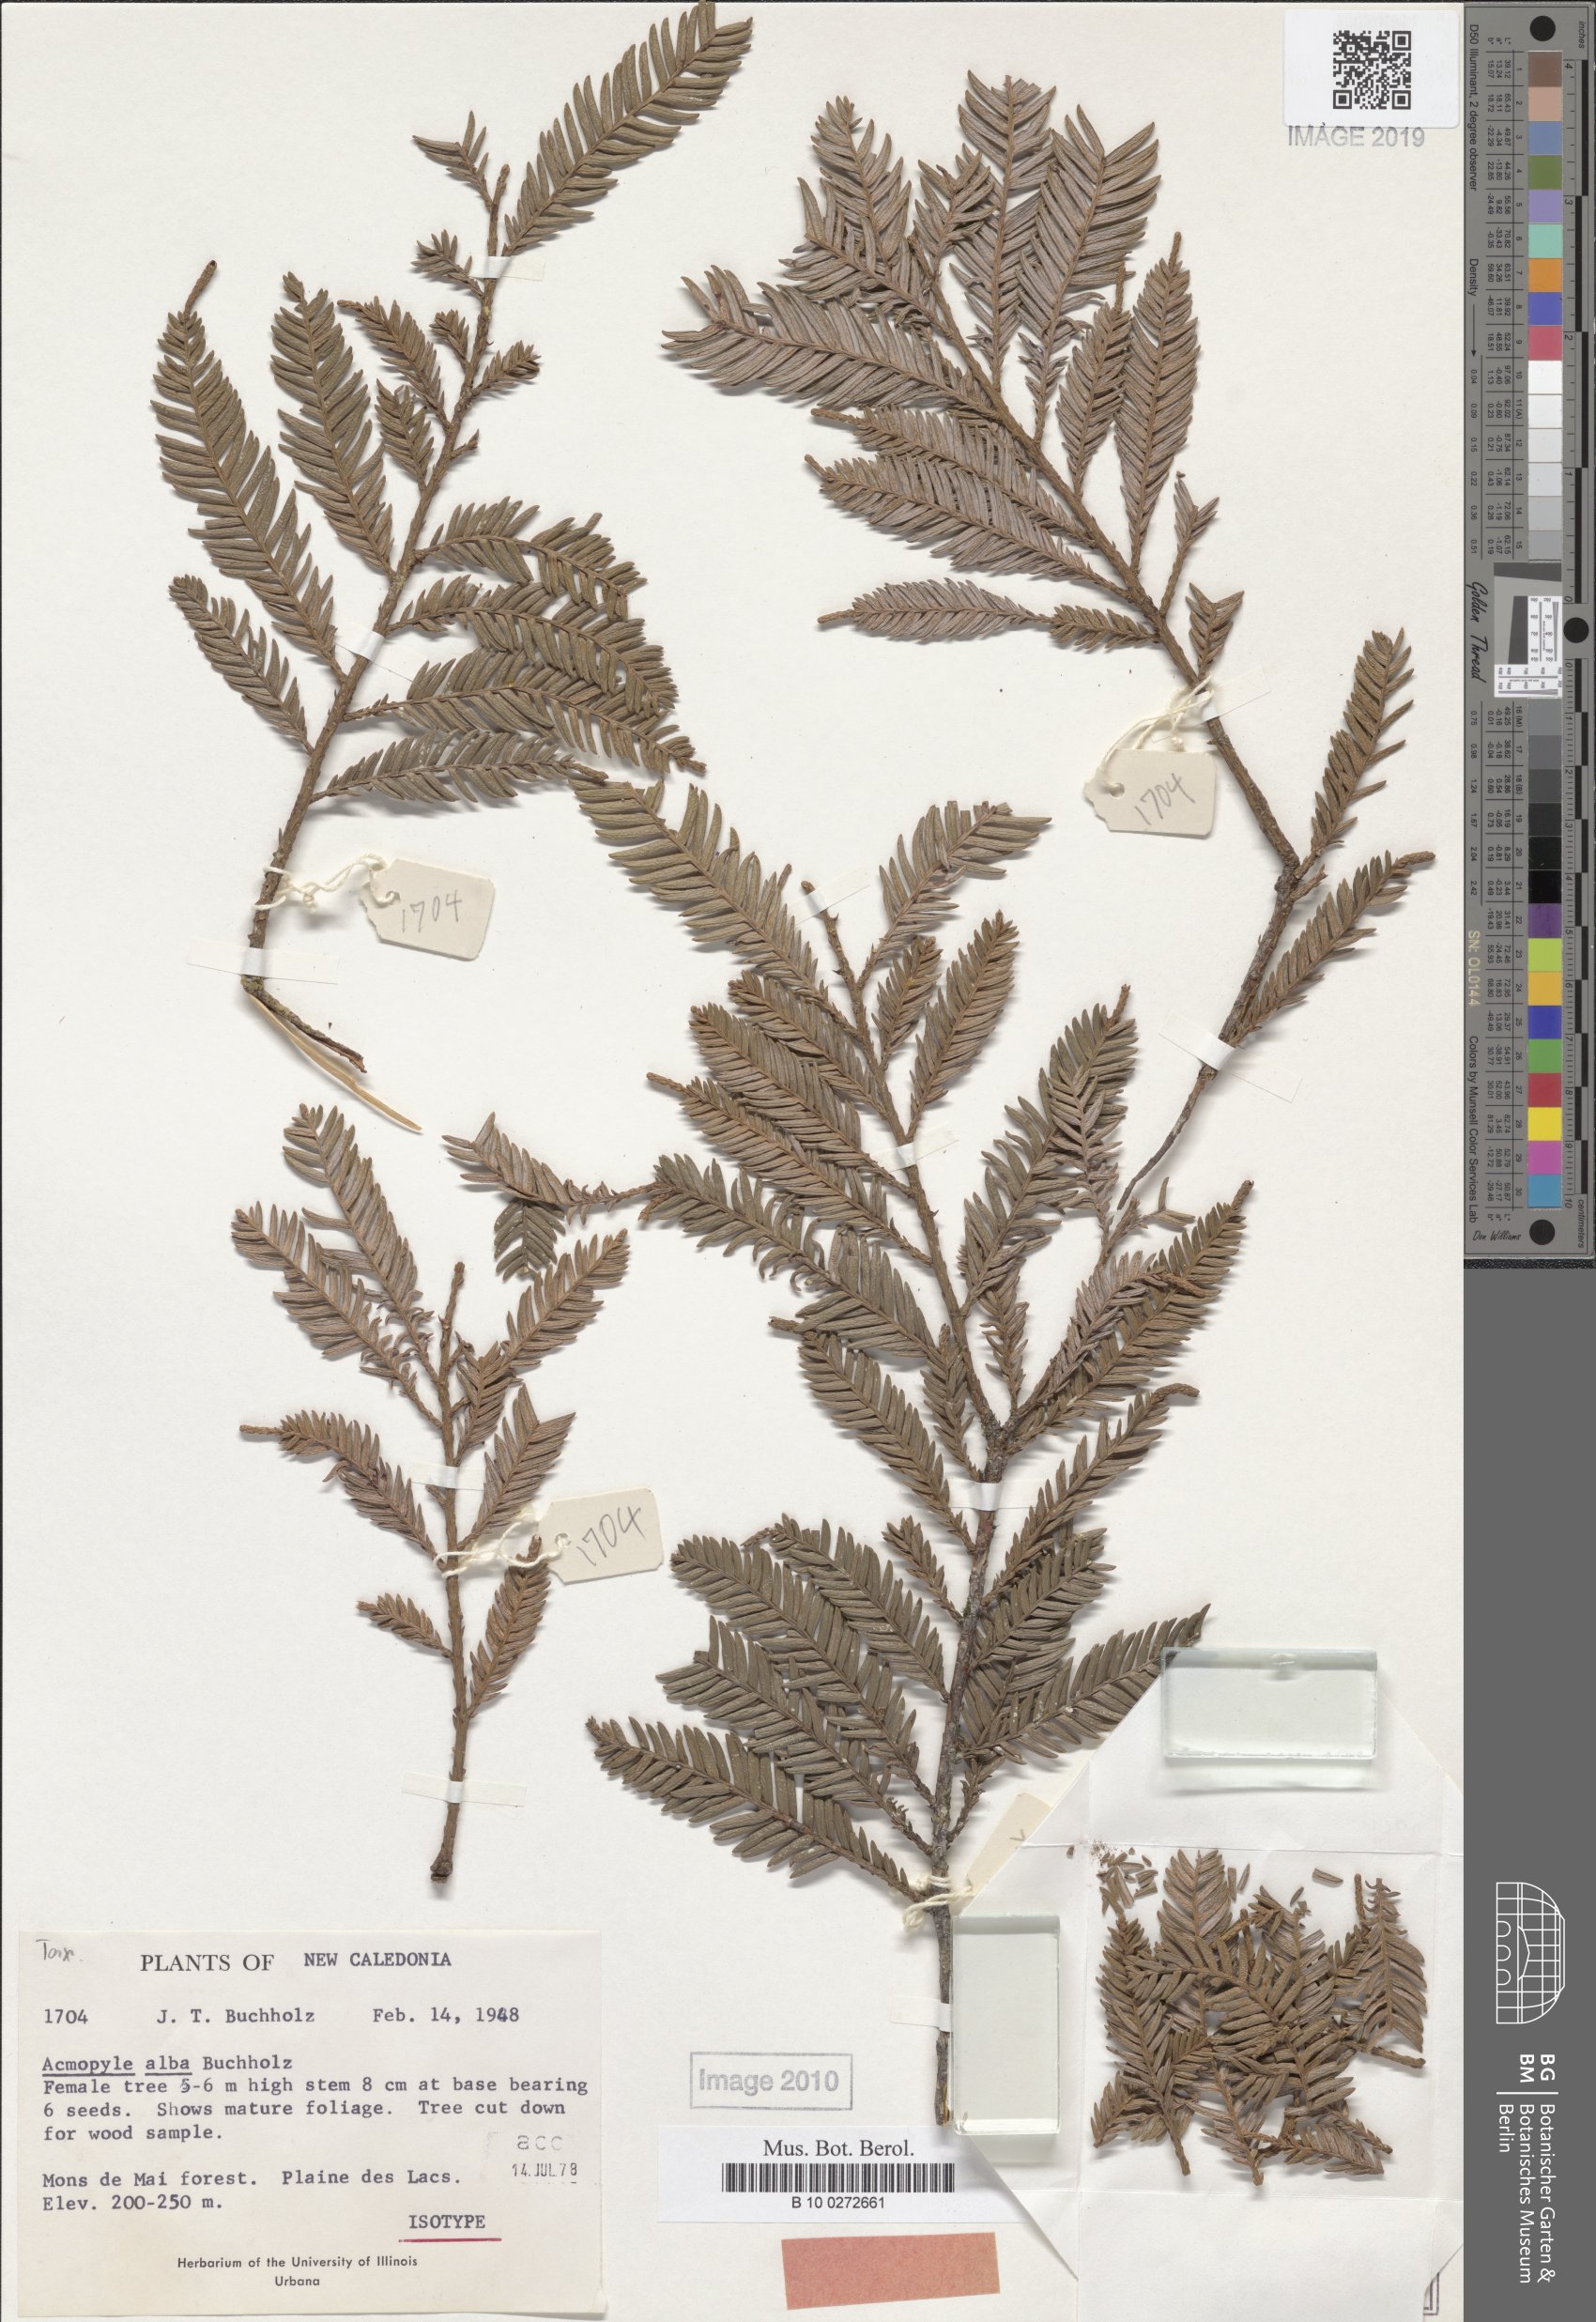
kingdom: Plantae
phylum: Tracheophyta
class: Pinopsida
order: Pinales
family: Podocarpaceae
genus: Acmopyle
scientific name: Acmopyle pancheri
